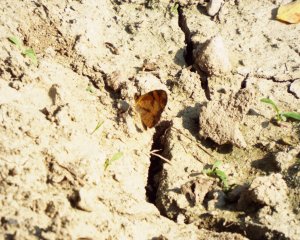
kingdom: Animalia
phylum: Arthropoda
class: Insecta
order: Lepidoptera
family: Nymphalidae
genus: Phyciodes
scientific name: Phyciodes tharos
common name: Pearl Crescent
